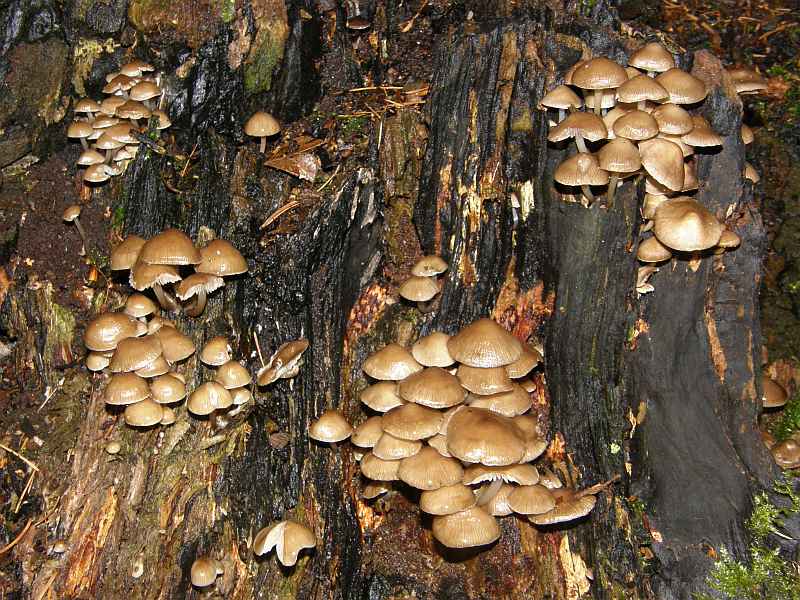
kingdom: Fungi
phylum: Basidiomycota
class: Agaricomycetes
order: Agaricales
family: Mycenaceae
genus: Mycena
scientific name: Mycena tintinnabulum
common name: vinter-huesvamp
